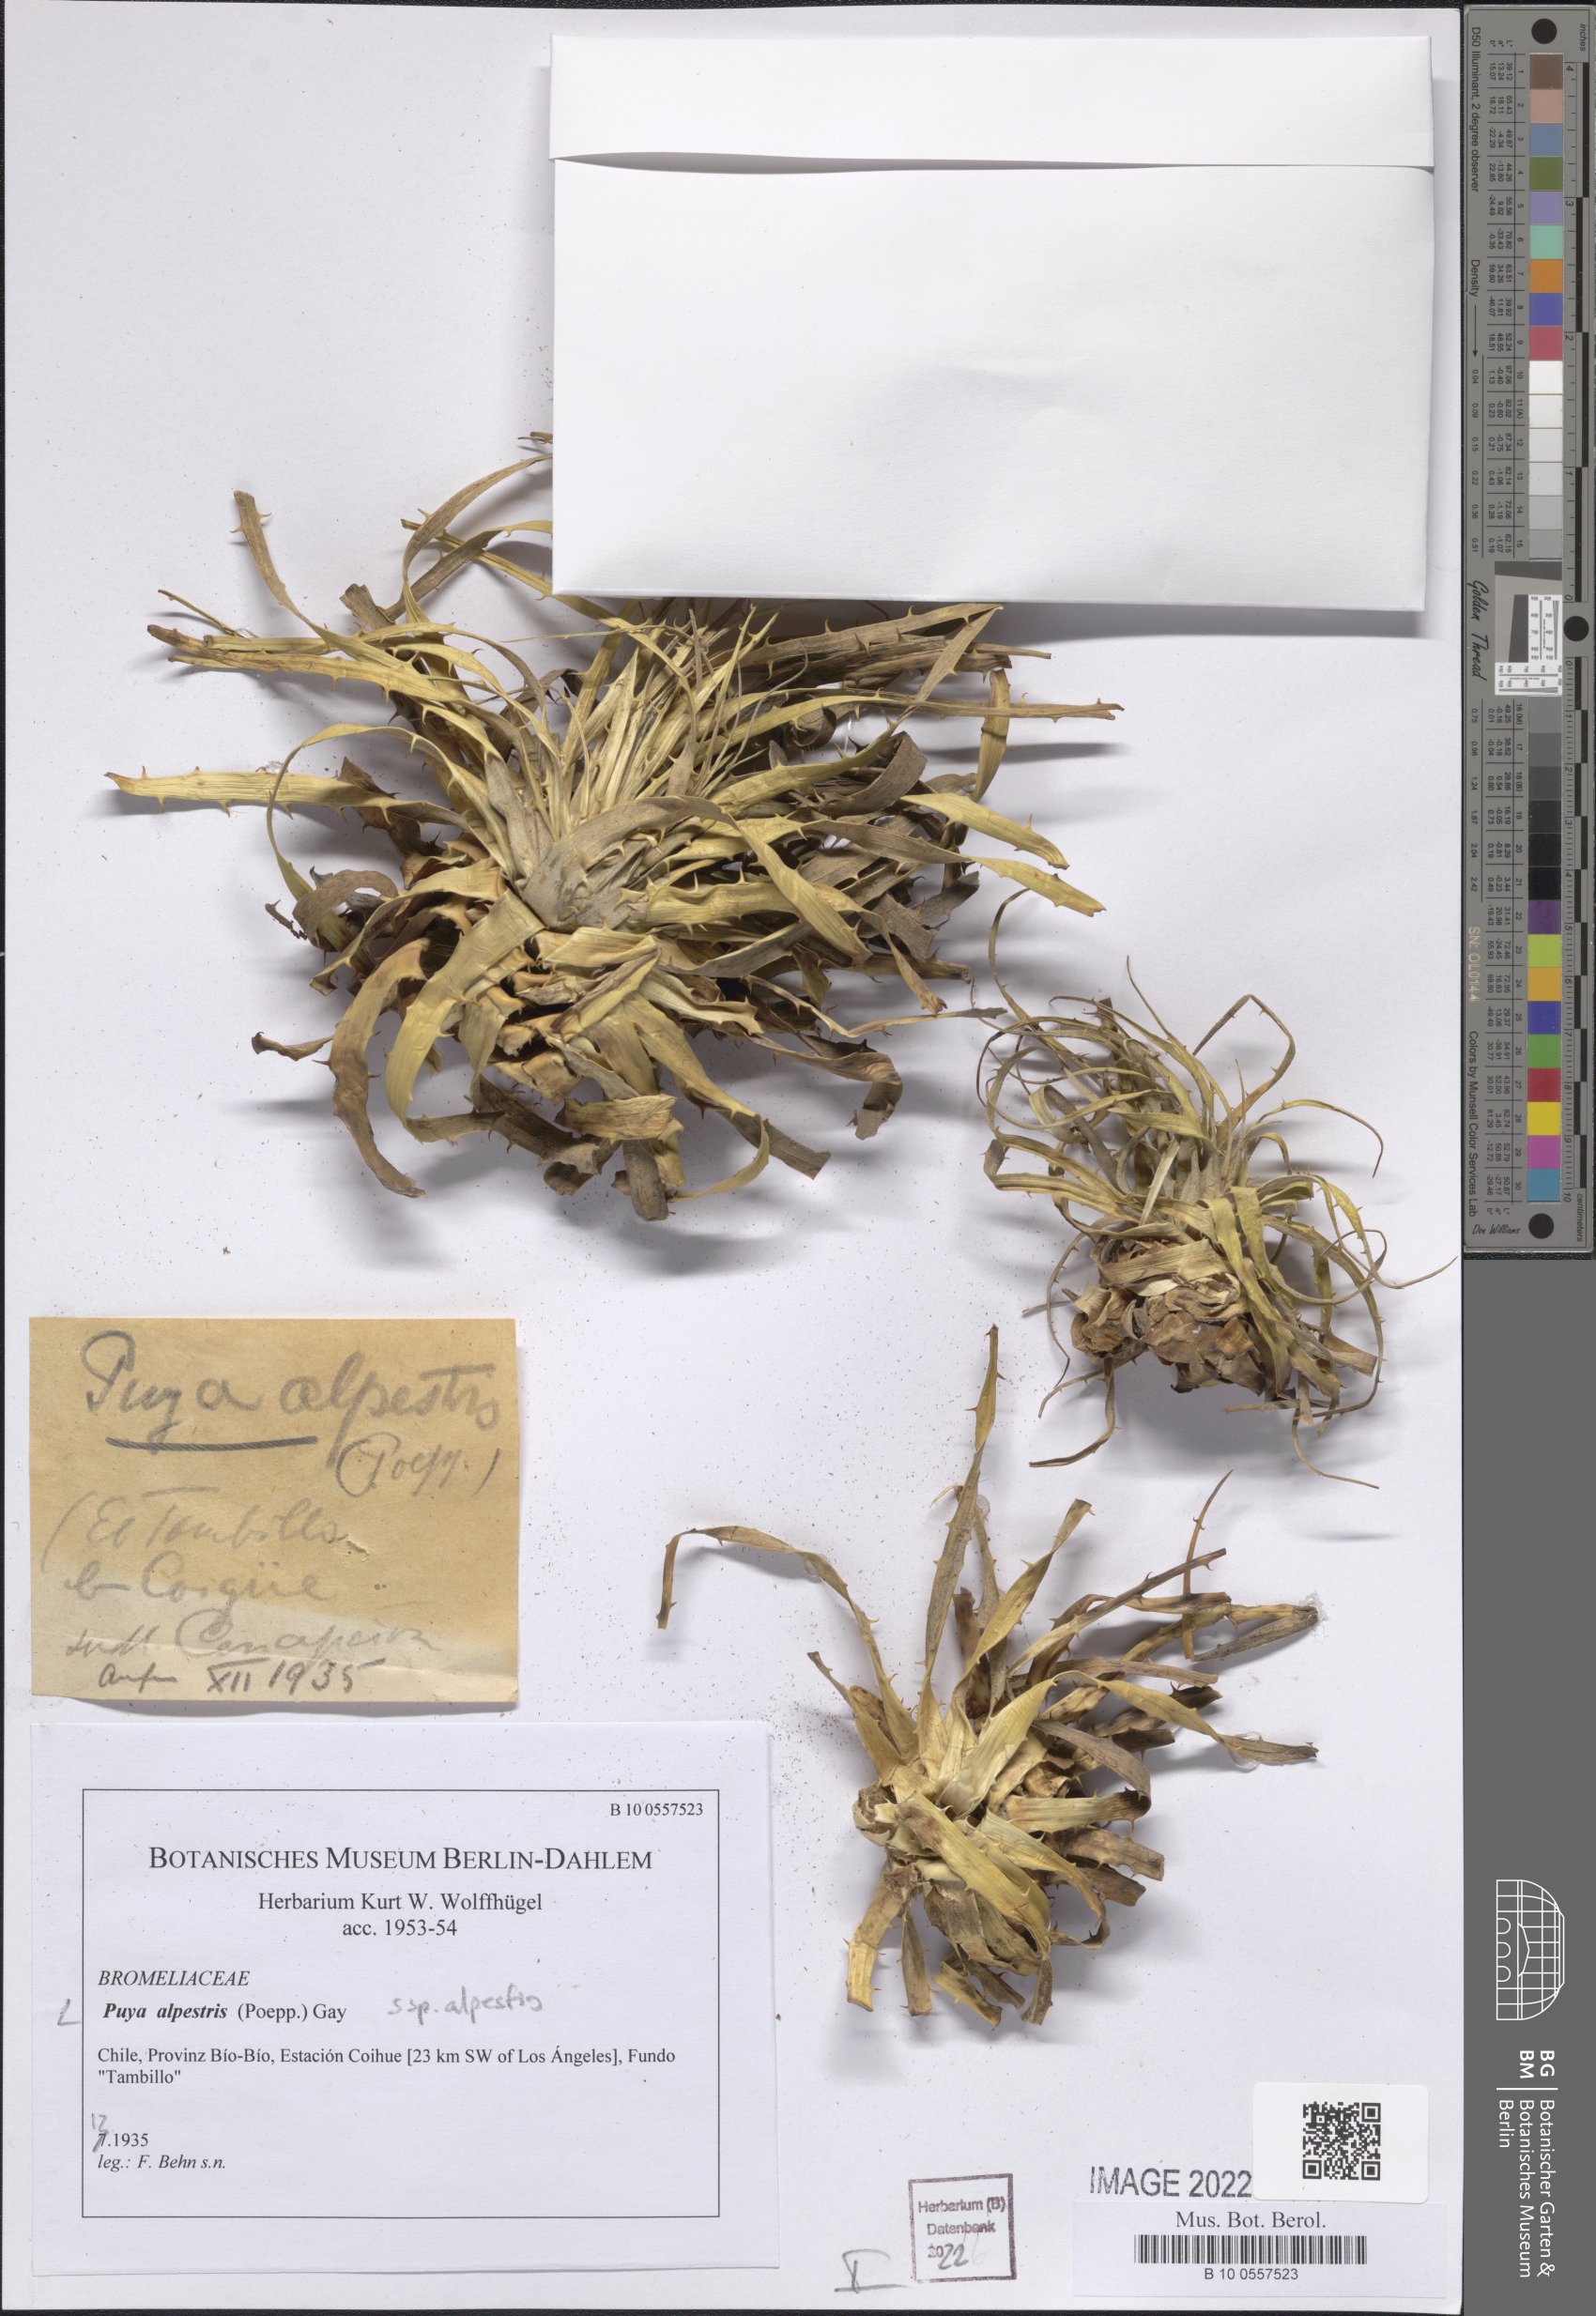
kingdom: Plantae
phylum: Tracheophyta
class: Liliopsida
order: Poales
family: Bromeliaceae
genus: Puya
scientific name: Puya alpestris
